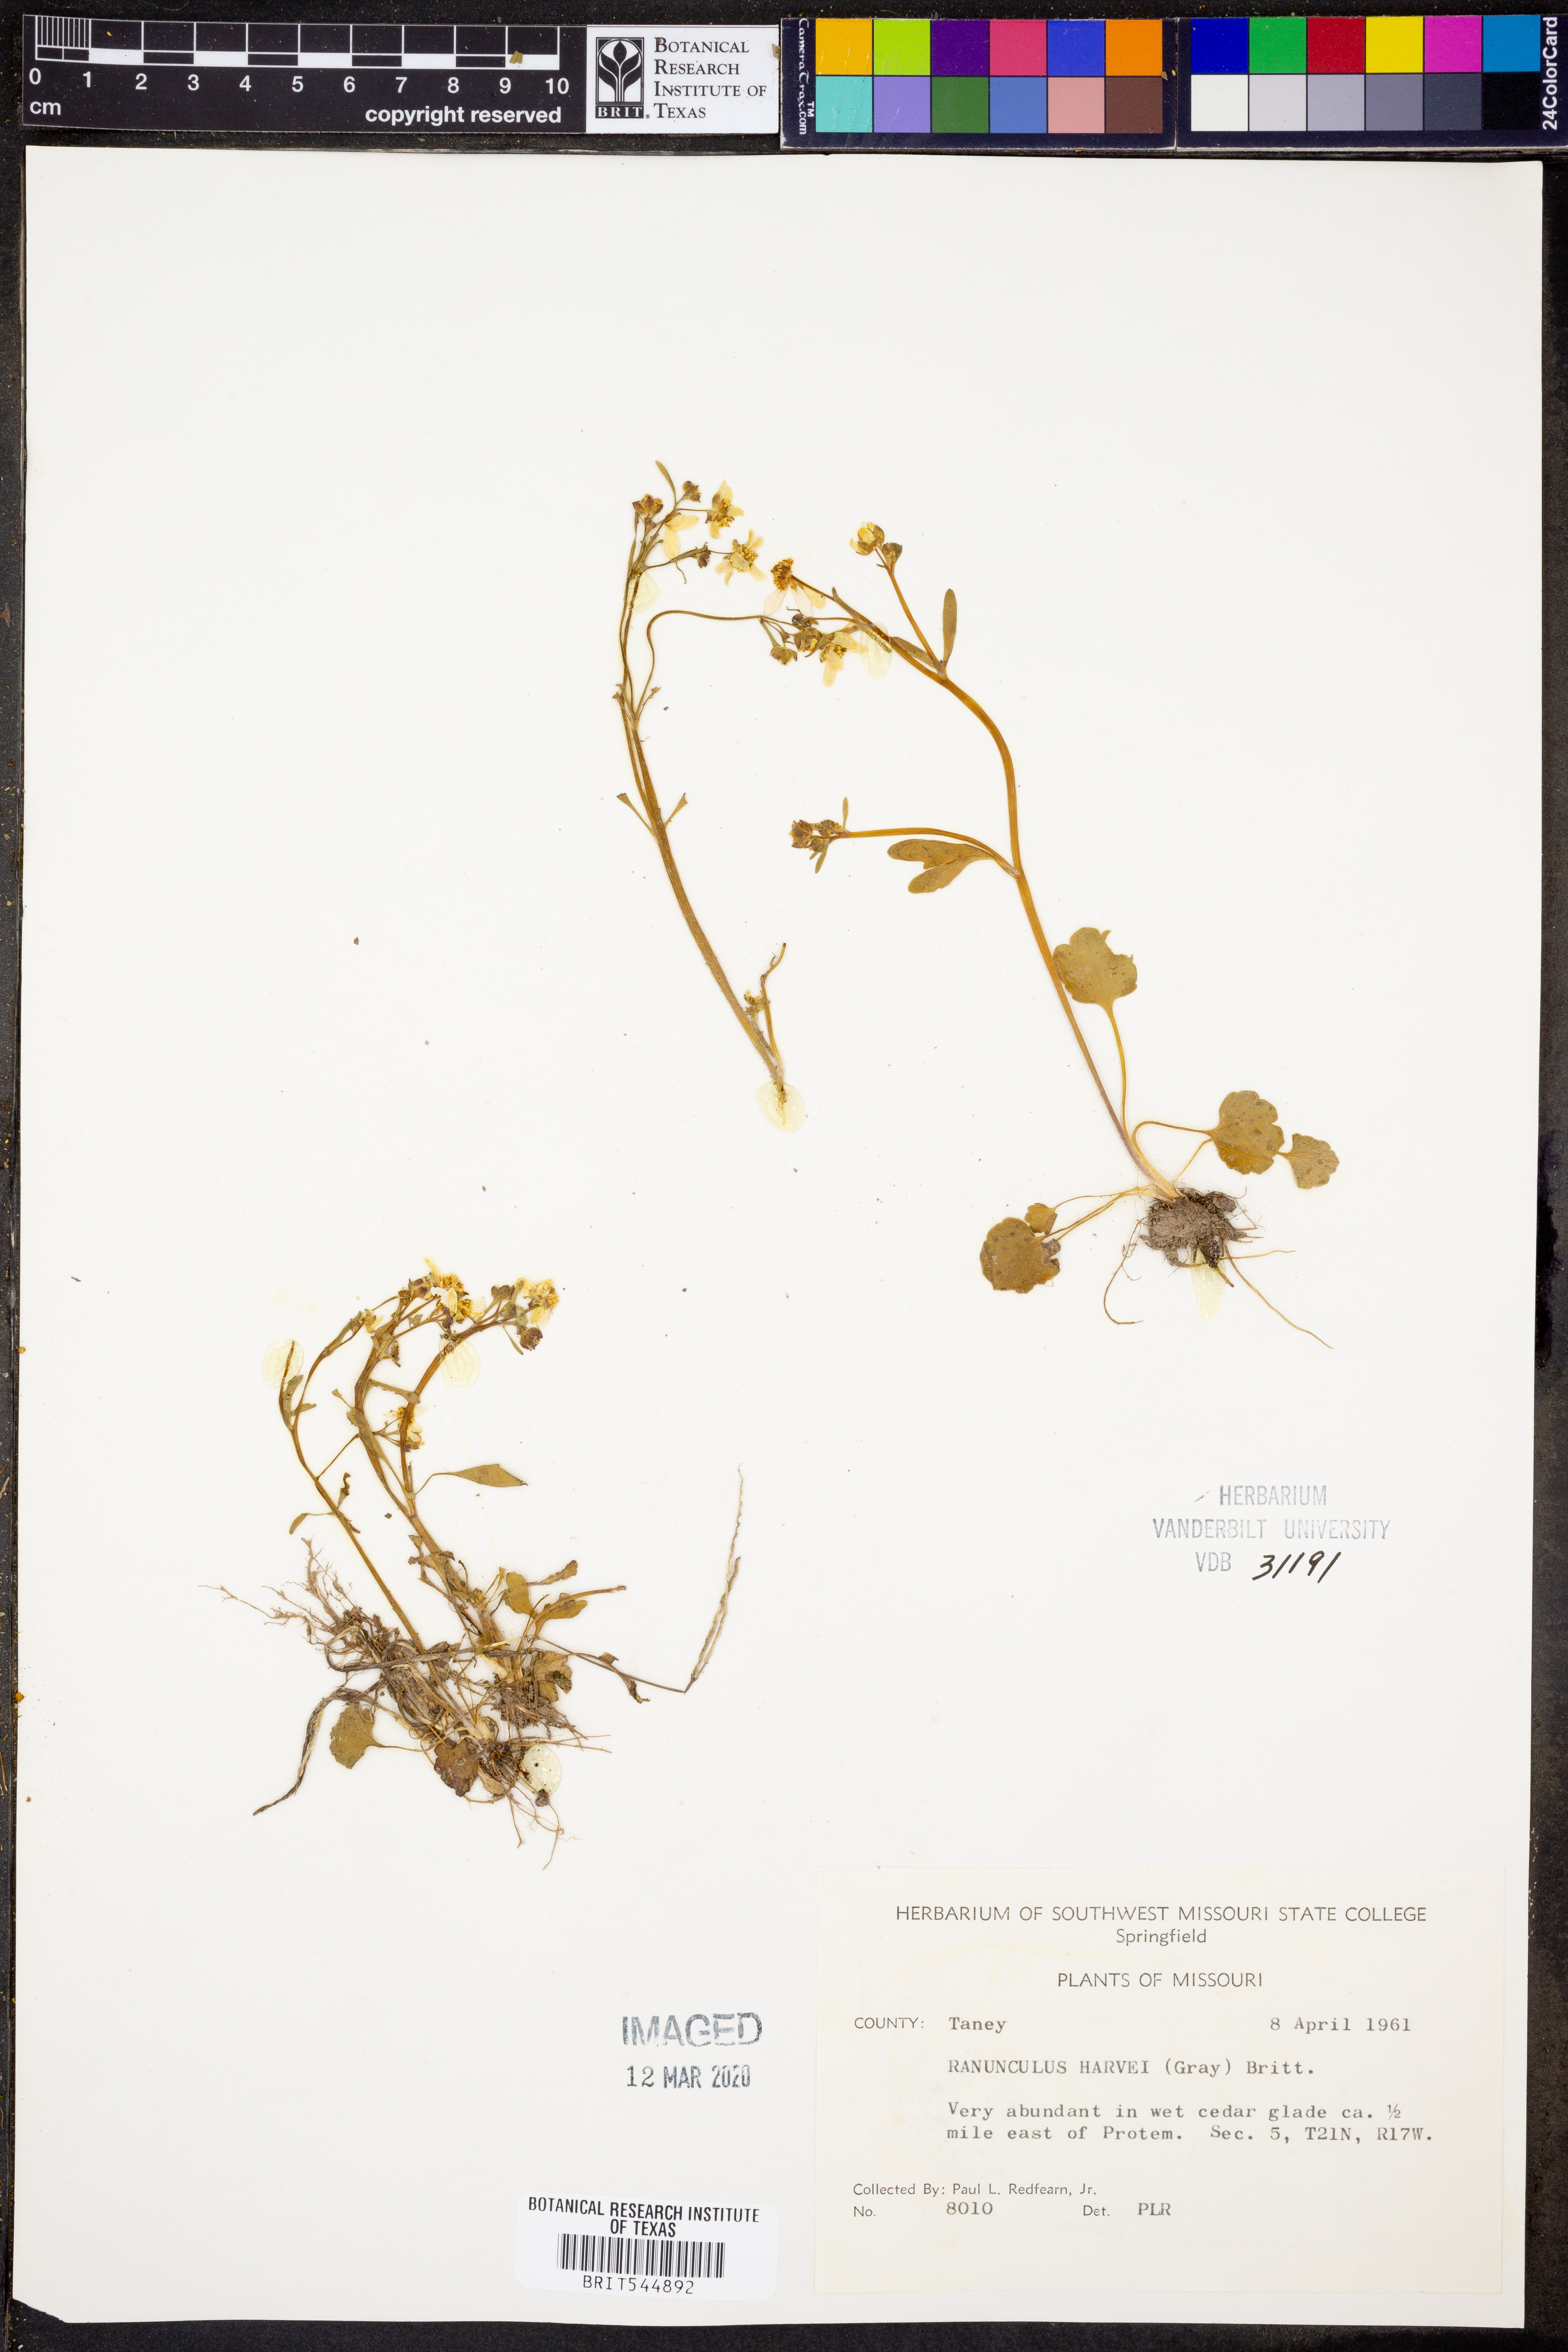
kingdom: Plantae
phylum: Tracheophyta
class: Magnoliopsida
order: Ranunculales
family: Ranunculaceae
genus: Ranunculus
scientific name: Ranunculus harveyi
